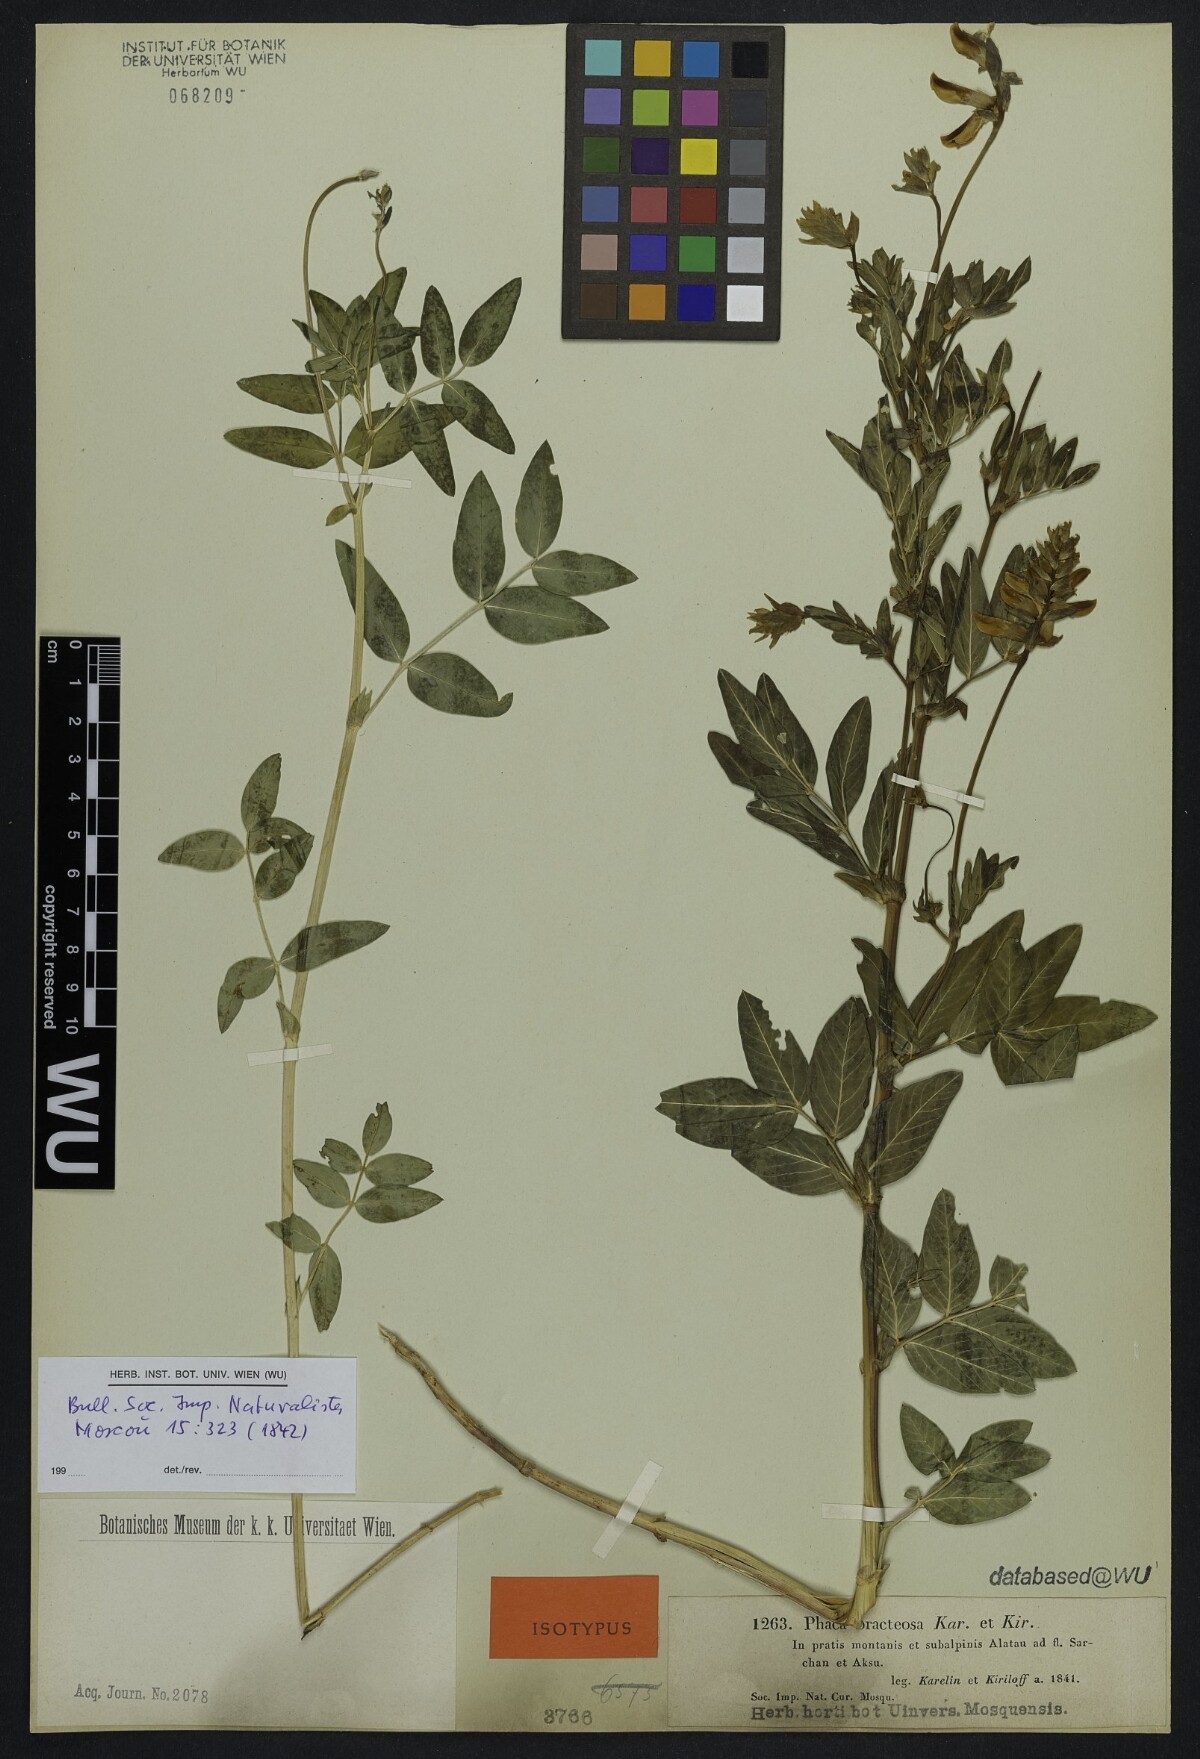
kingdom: Plantae
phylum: Tracheophyta
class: Magnoliopsida
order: Fabales
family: Fabaceae
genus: Astragalus
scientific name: Astragalus aksuensis
